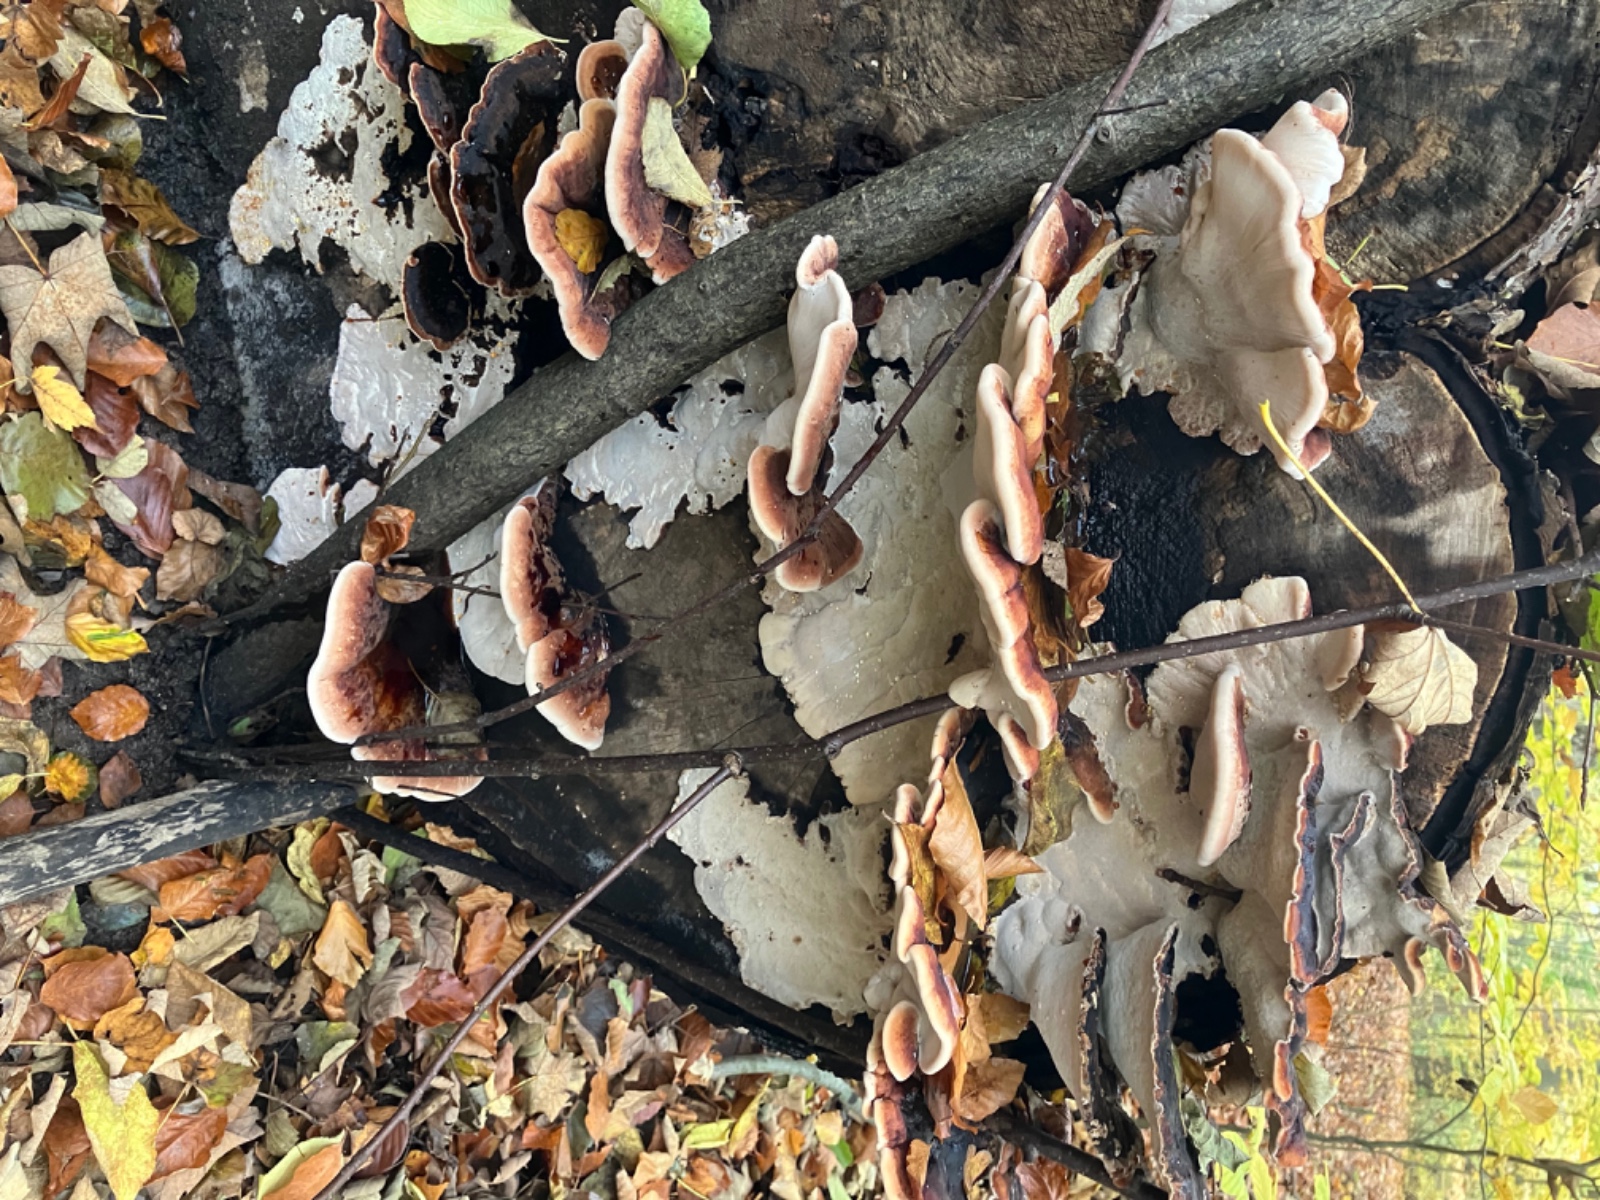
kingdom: Fungi
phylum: Basidiomycota
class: Agaricomycetes
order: Polyporales
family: Ischnodermataceae
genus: Ischnoderma
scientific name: Ischnoderma resinosum
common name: løv-tjæreporesvamp
